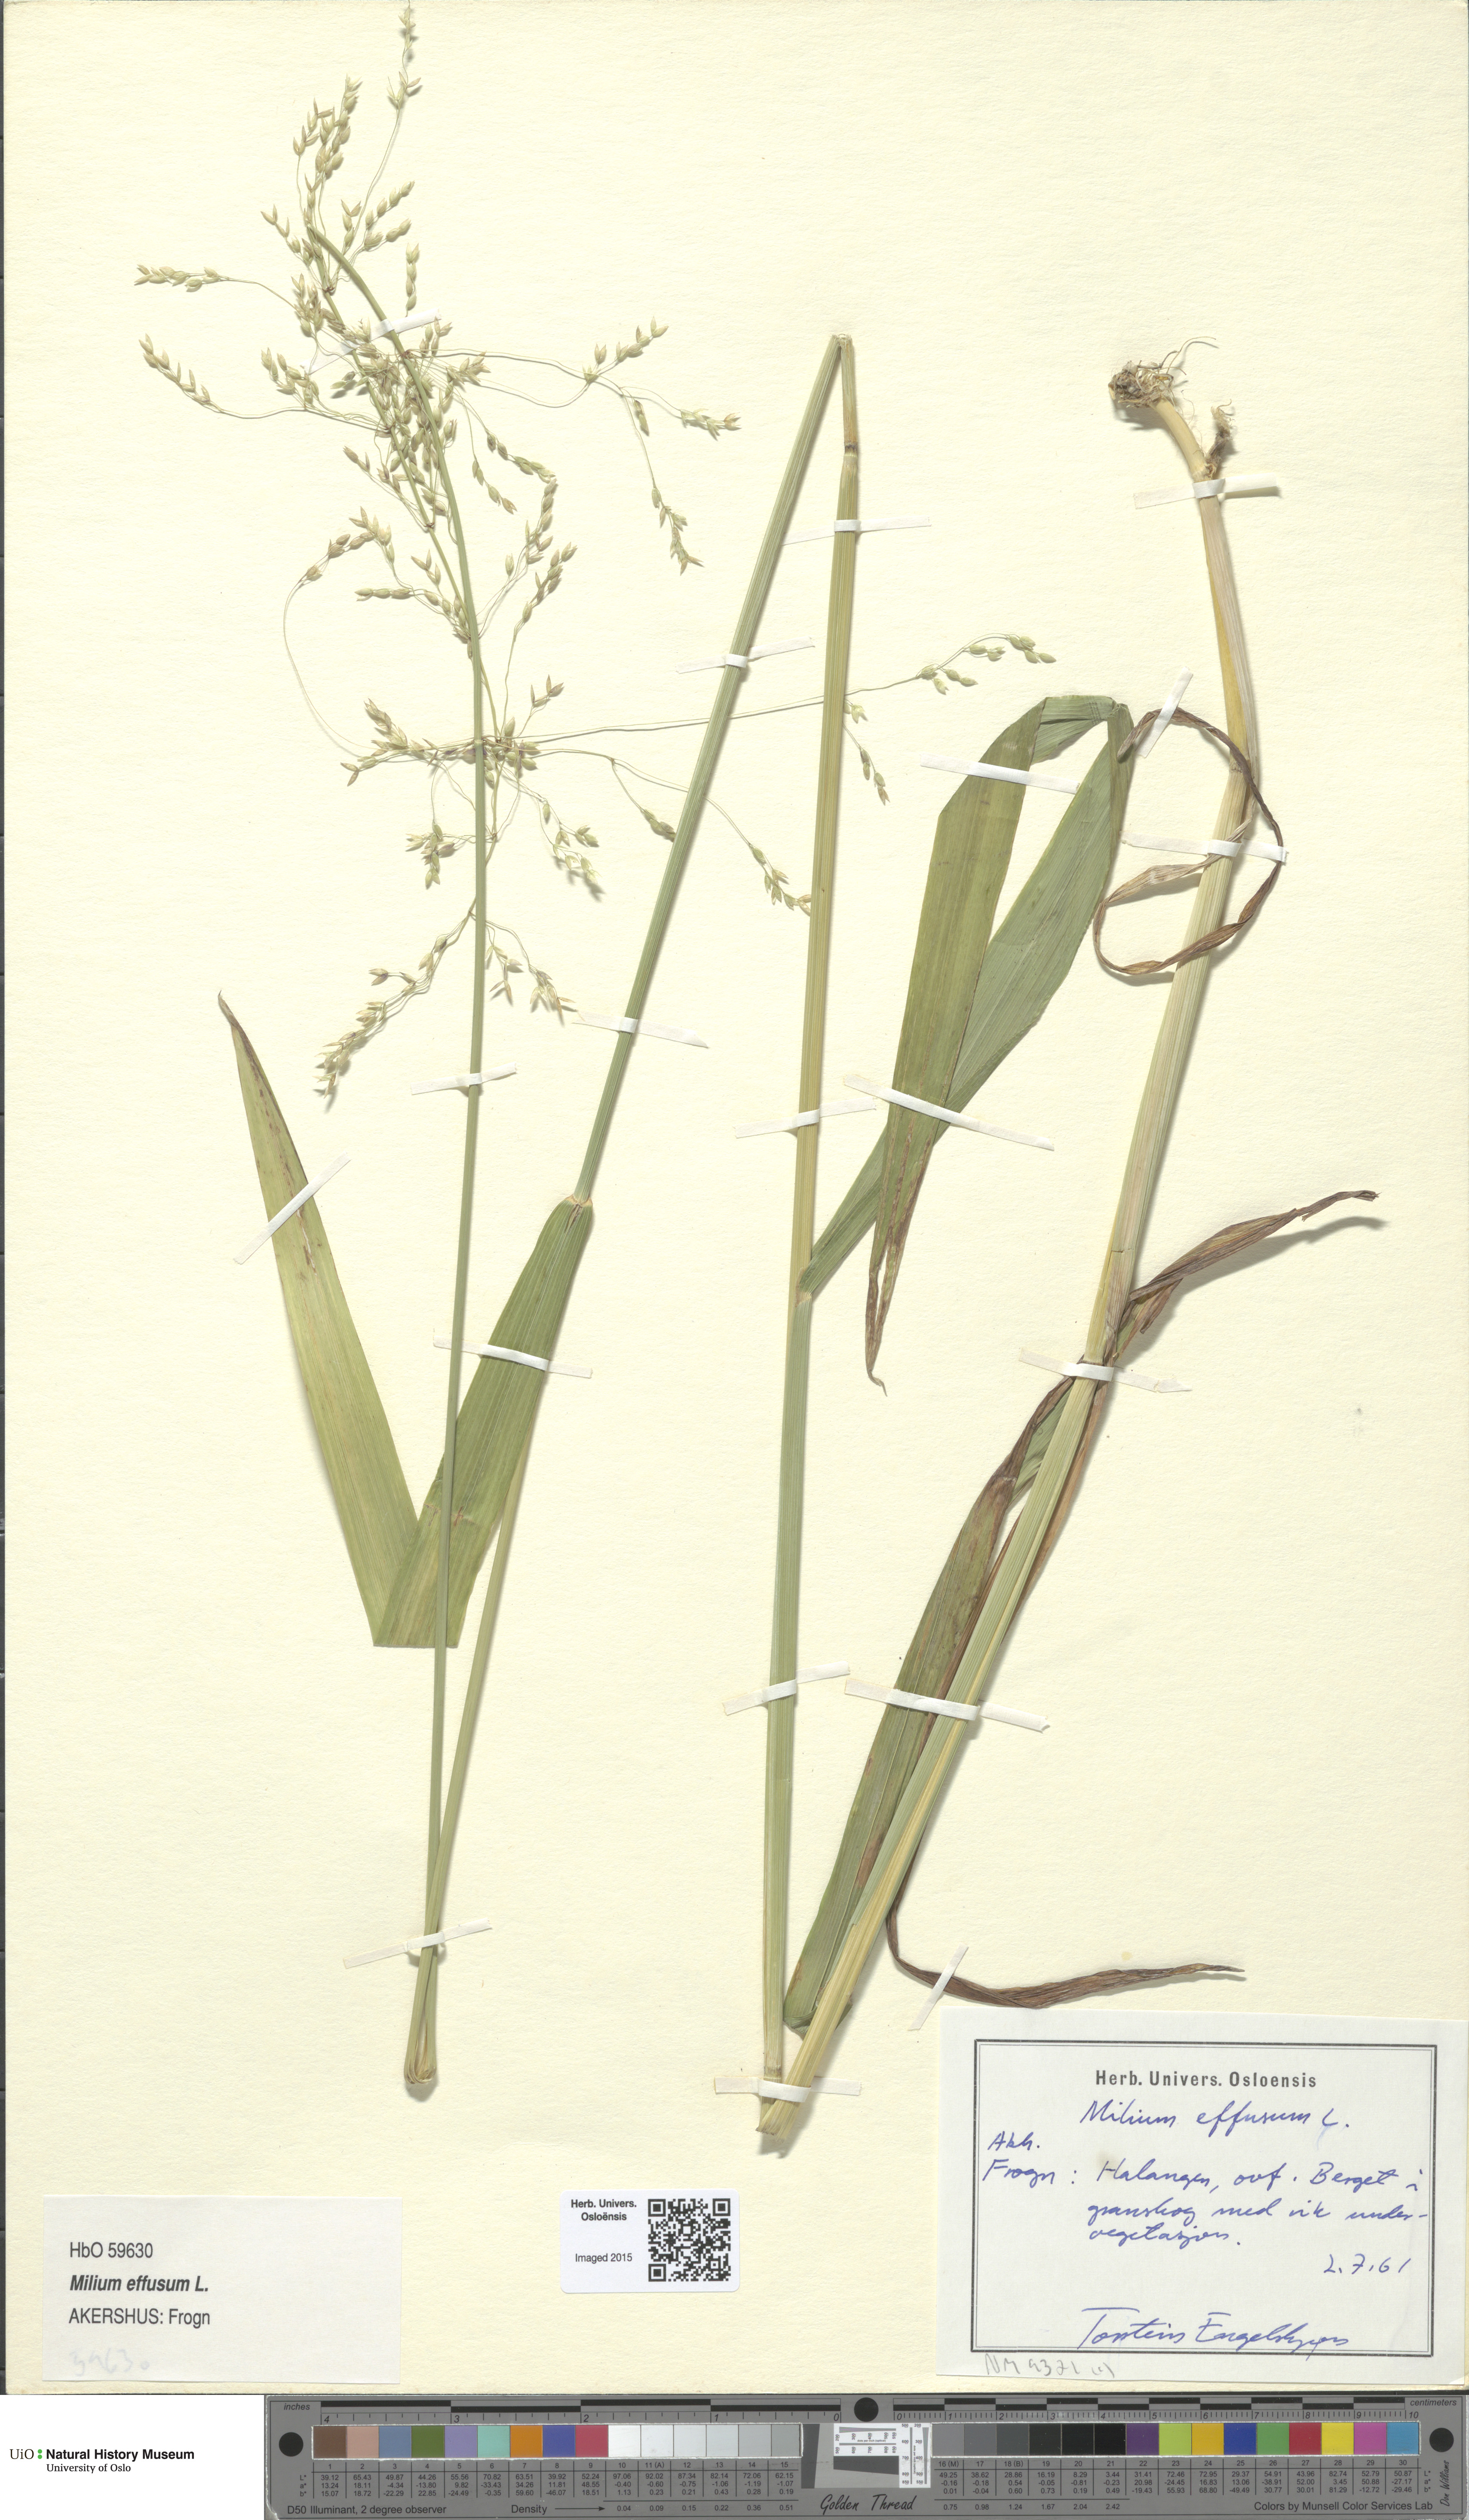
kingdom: Plantae
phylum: Tracheophyta
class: Liliopsida
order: Poales
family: Poaceae
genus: Milium
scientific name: Milium effusum
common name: Wood millet
